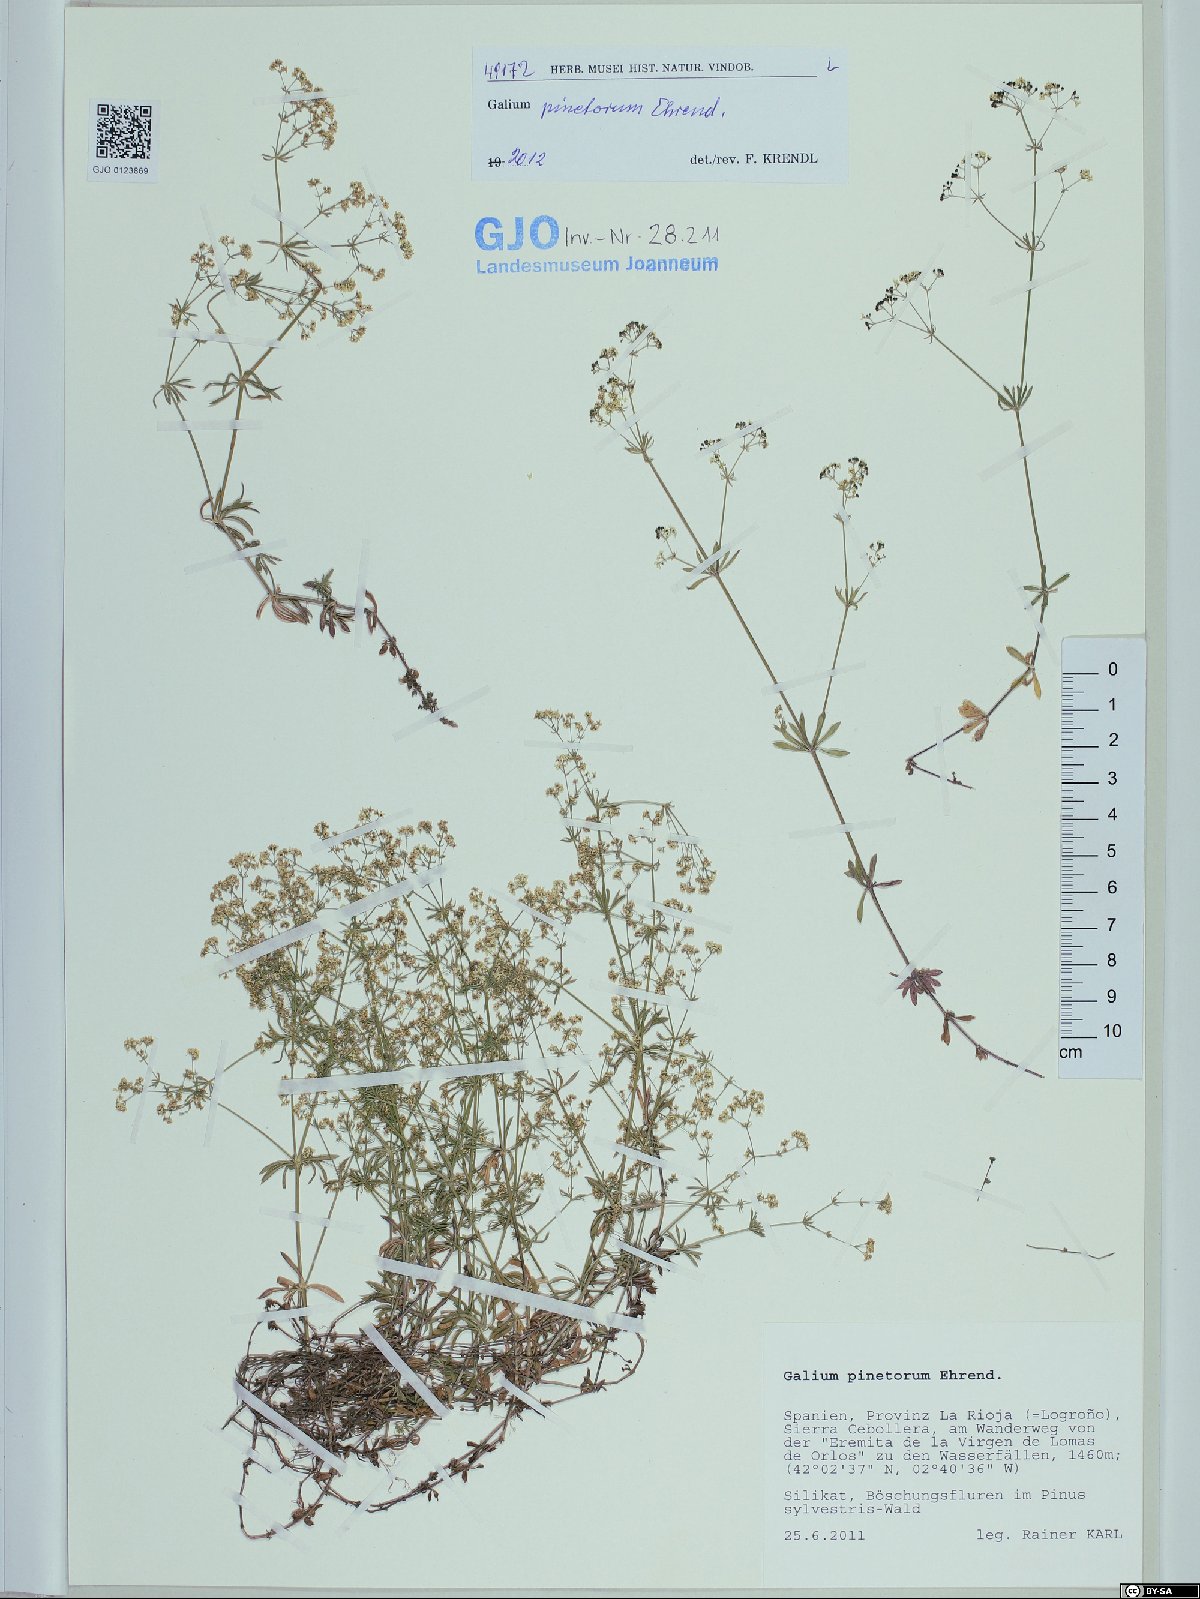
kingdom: Plantae
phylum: Tracheophyta
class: Magnoliopsida
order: Gentianales
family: Rubiaceae
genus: Galium
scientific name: Galium estebanii
